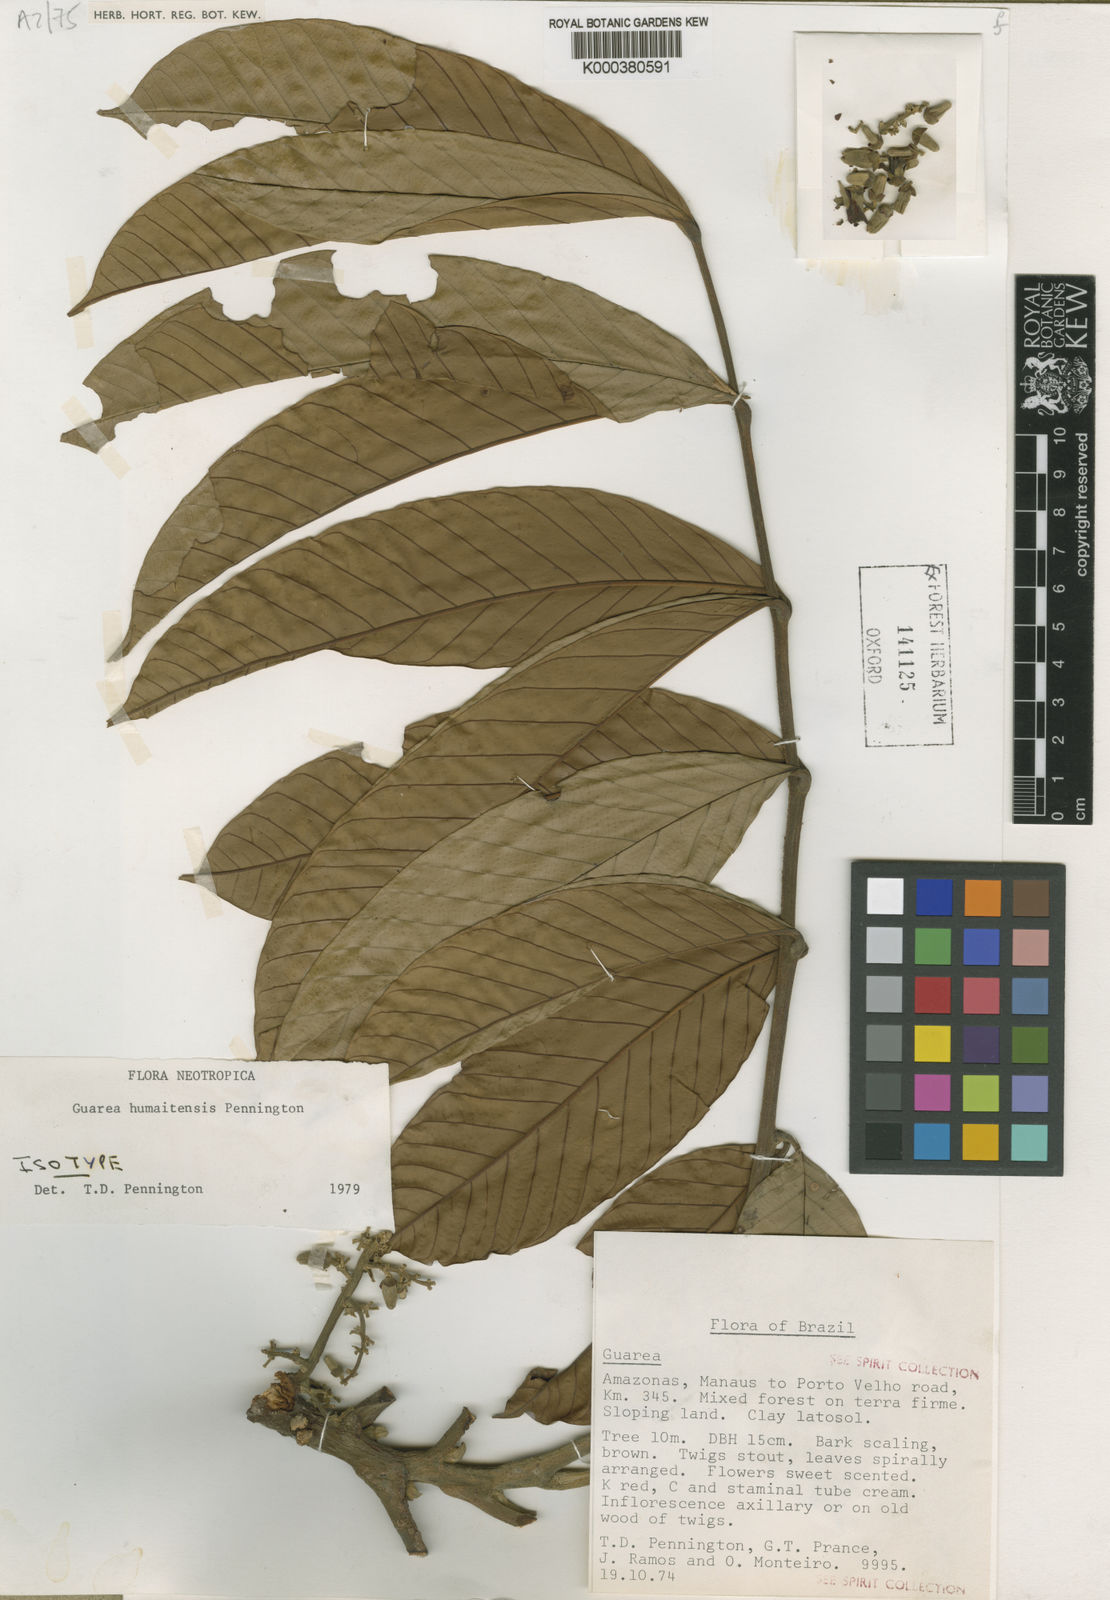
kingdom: Plantae
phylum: Tracheophyta
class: Magnoliopsida
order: Sapindales
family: Meliaceae
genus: Guarea
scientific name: Guarea humaitensis
